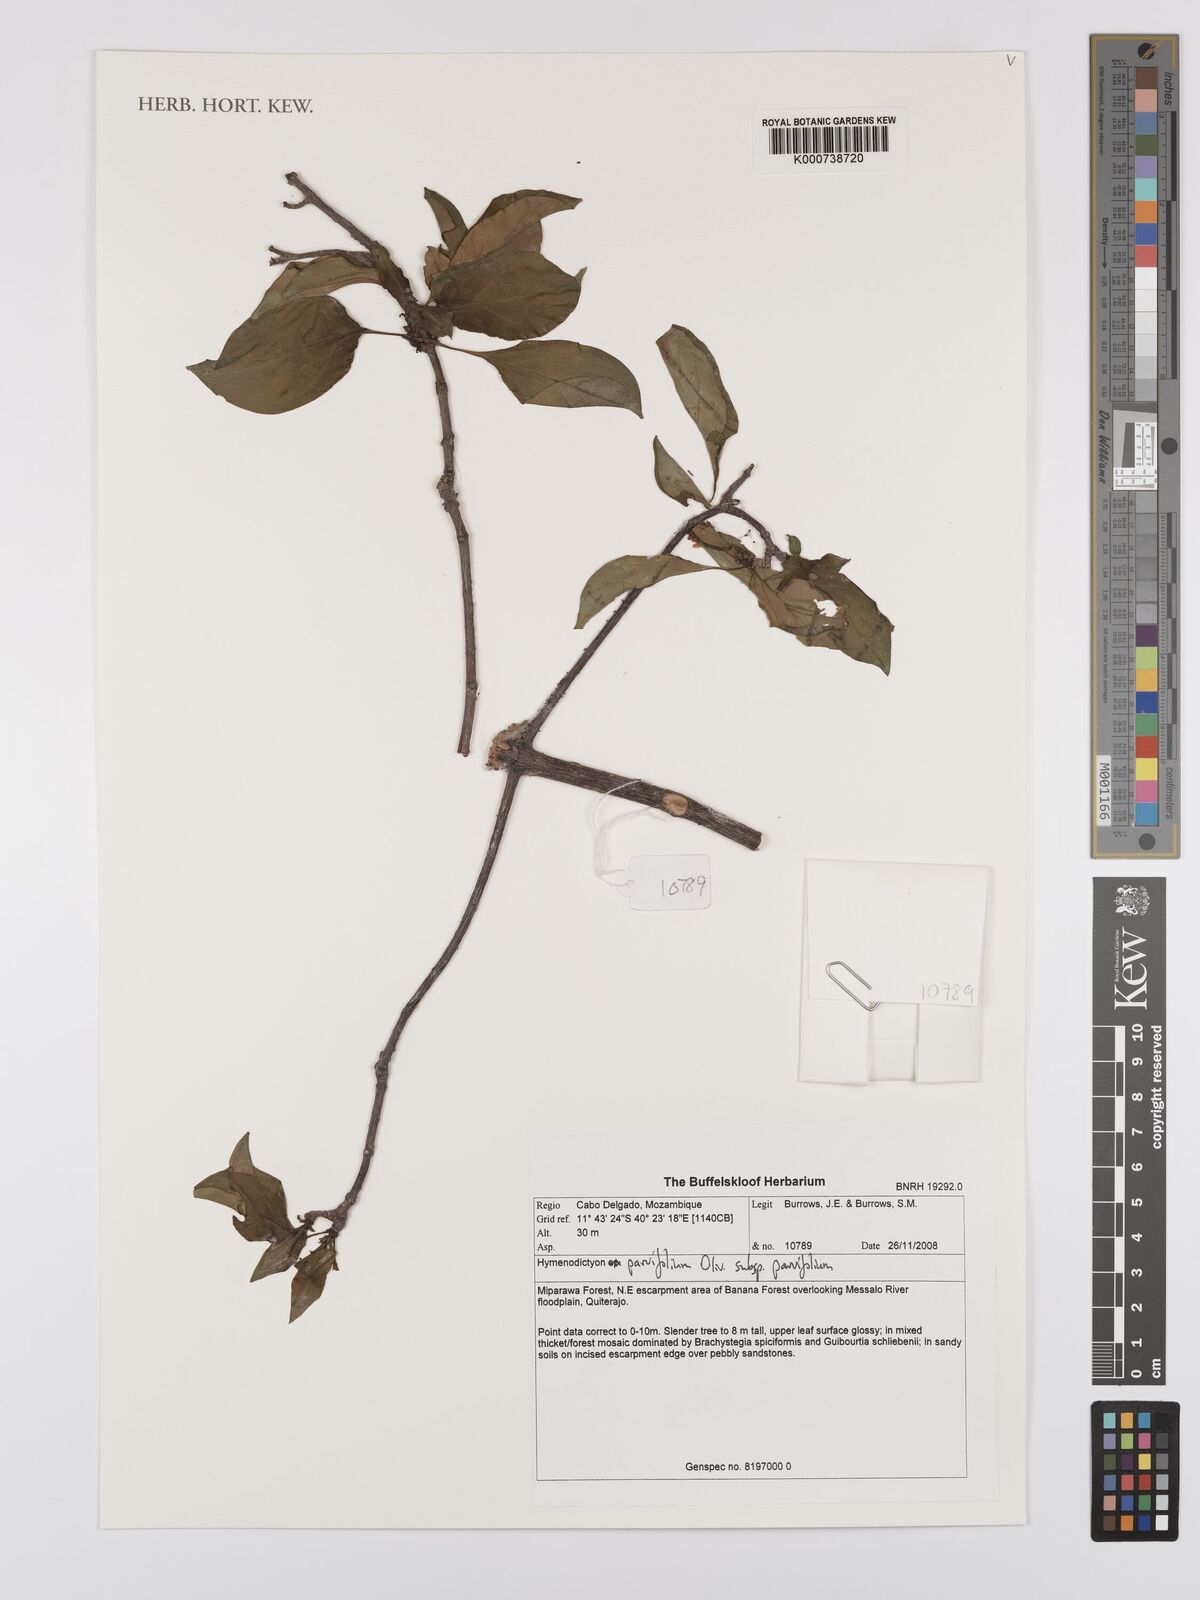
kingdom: Plantae
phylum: Tracheophyta
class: Magnoliopsida
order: Gentianales
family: Rubiaceae
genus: Hymenodictyon
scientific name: Hymenodictyon parvifolium
